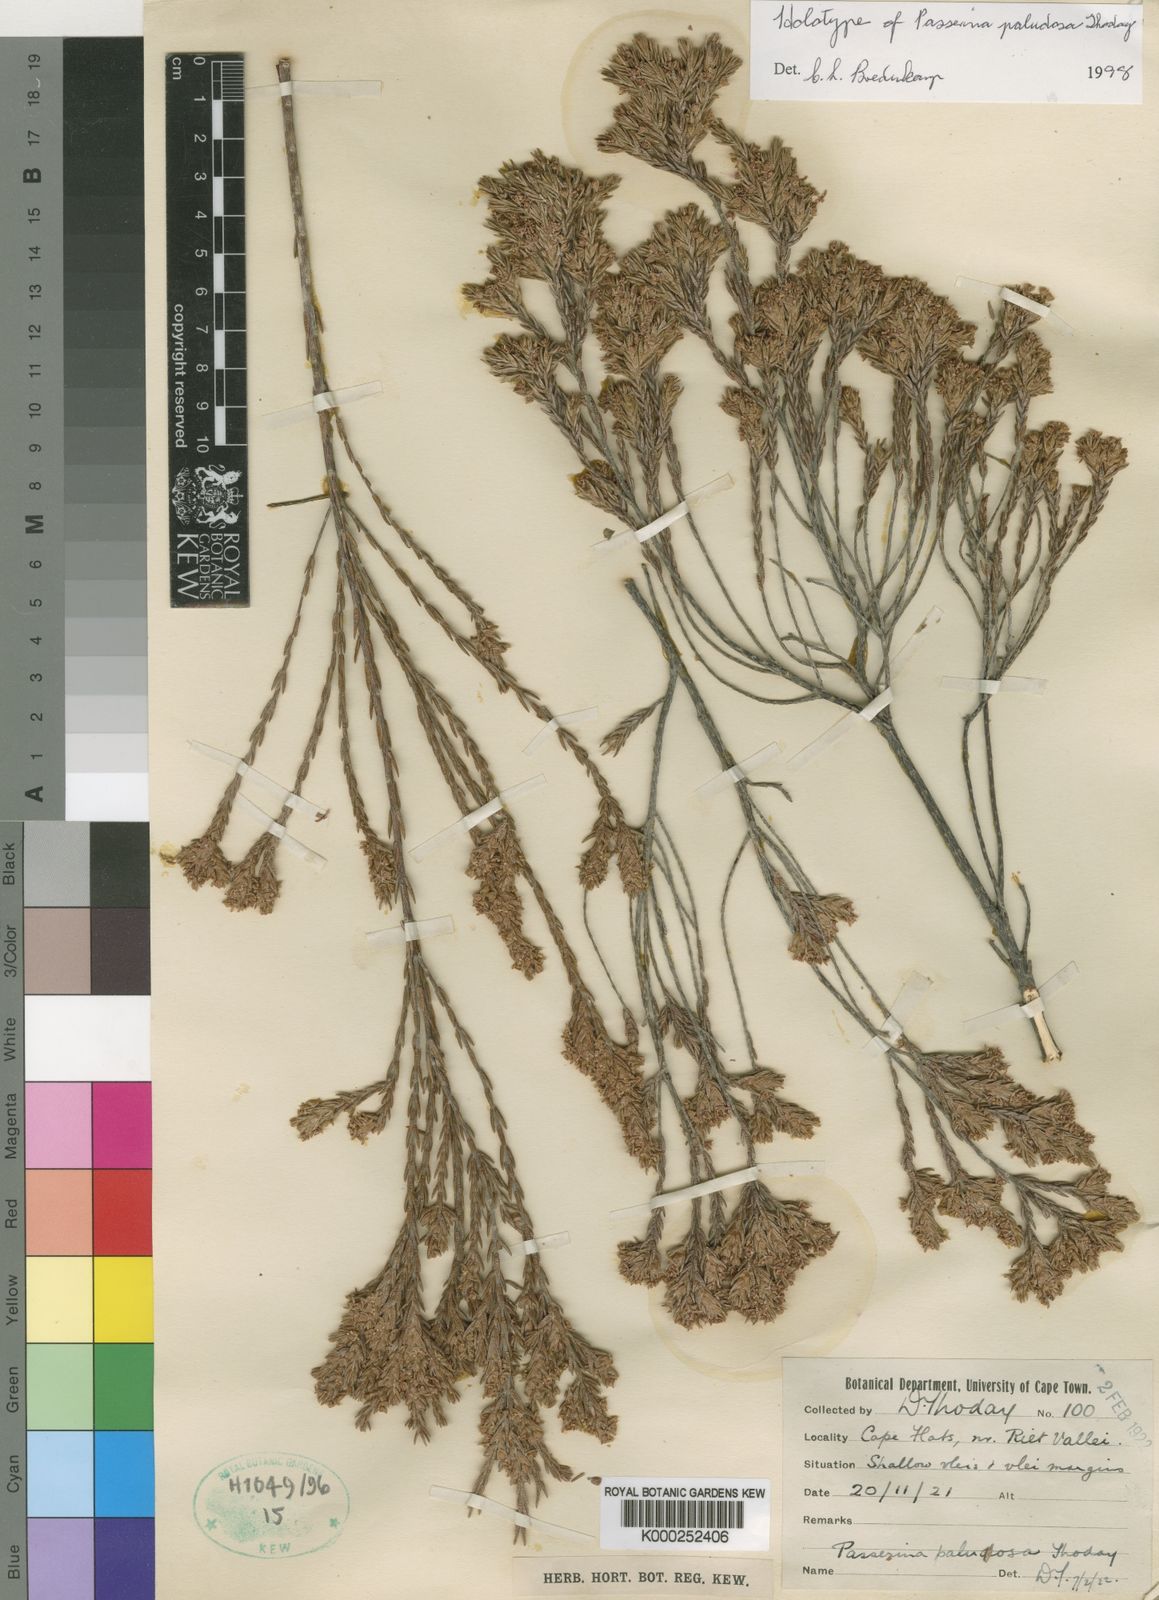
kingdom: Plantae
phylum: Tracheophyta
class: Magnoliopsida
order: Malvales
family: Thymelaeaceae
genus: Passerina
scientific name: Passerina paludosa
